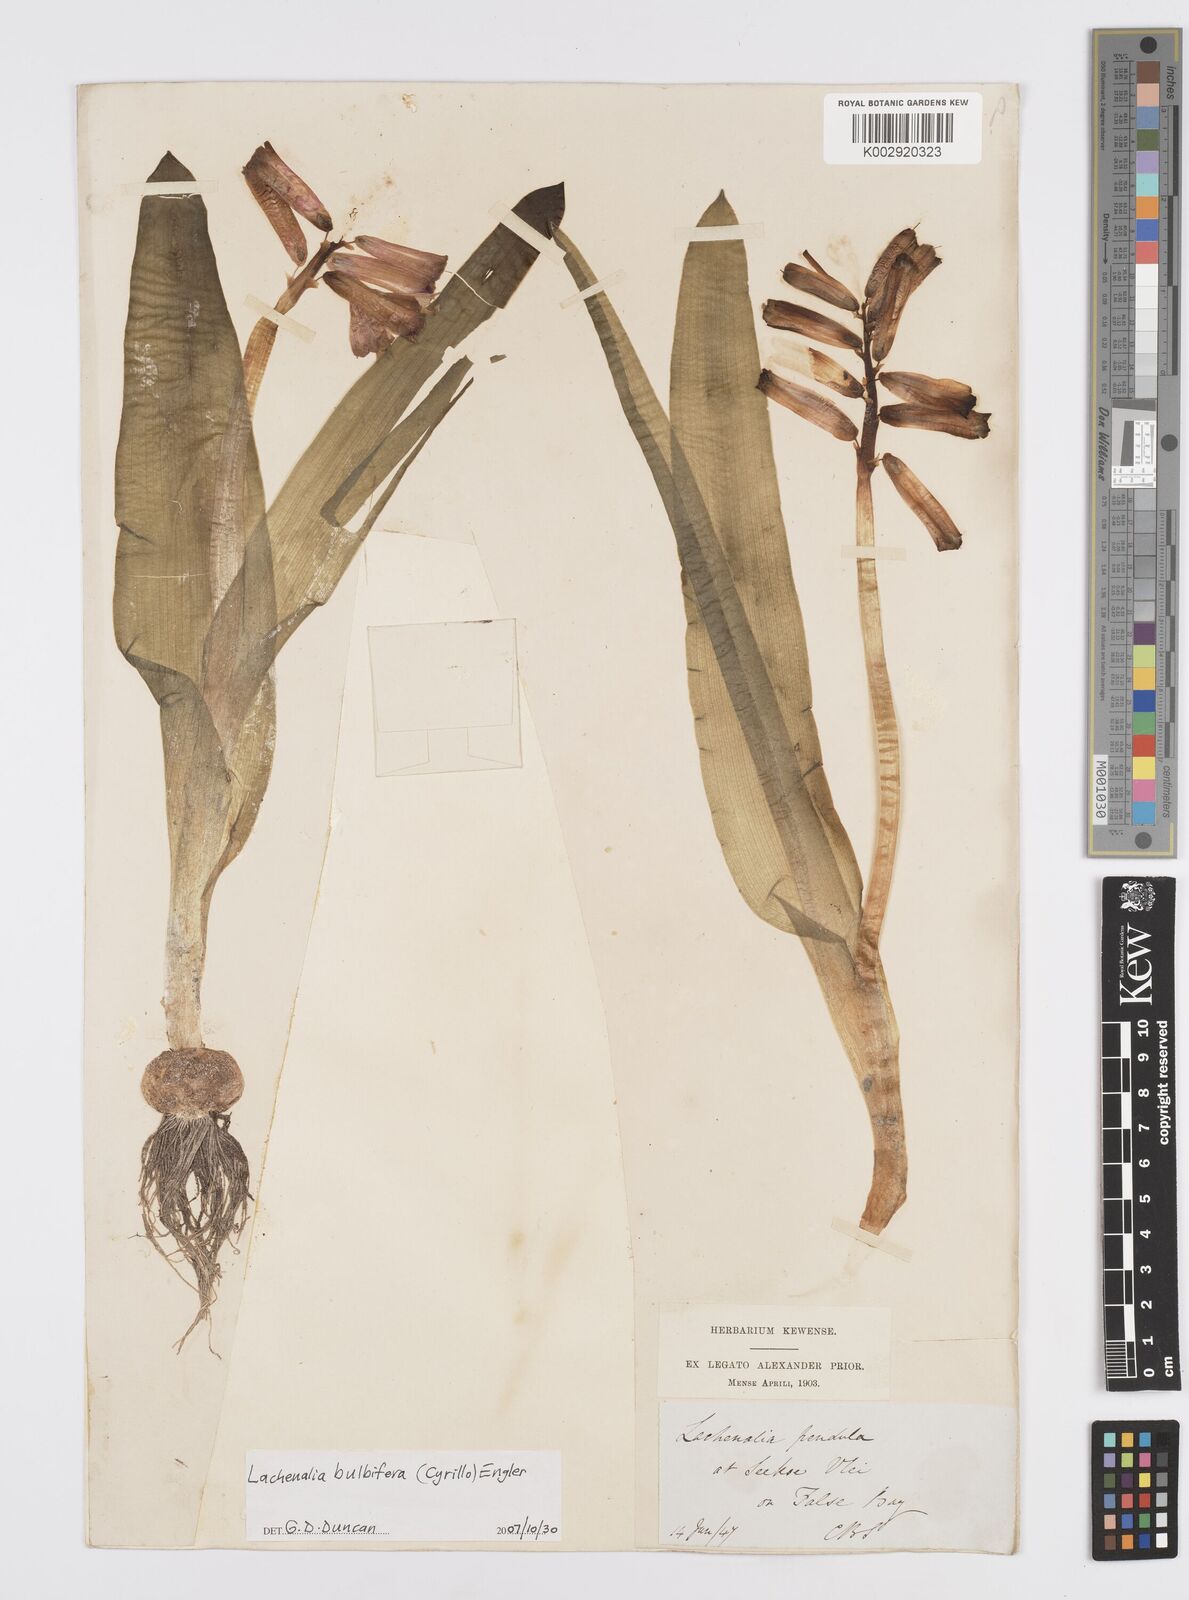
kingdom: Plantae
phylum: Tracheophyta
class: Liliopsida
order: Asparagales
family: Asparagaceae
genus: Lachenalia
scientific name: Lachenalia bulbifera
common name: Red lachenalia
